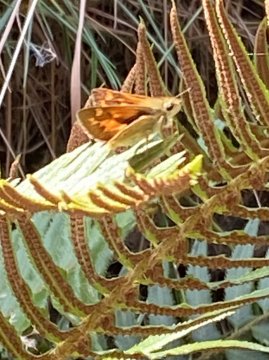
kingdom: Animalia
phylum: Arthropoda
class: Insecta
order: Lepidoptera
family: Hesperiidae
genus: Ochlodes
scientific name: Ochlodes sylvanoides
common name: Woodland Skipper
